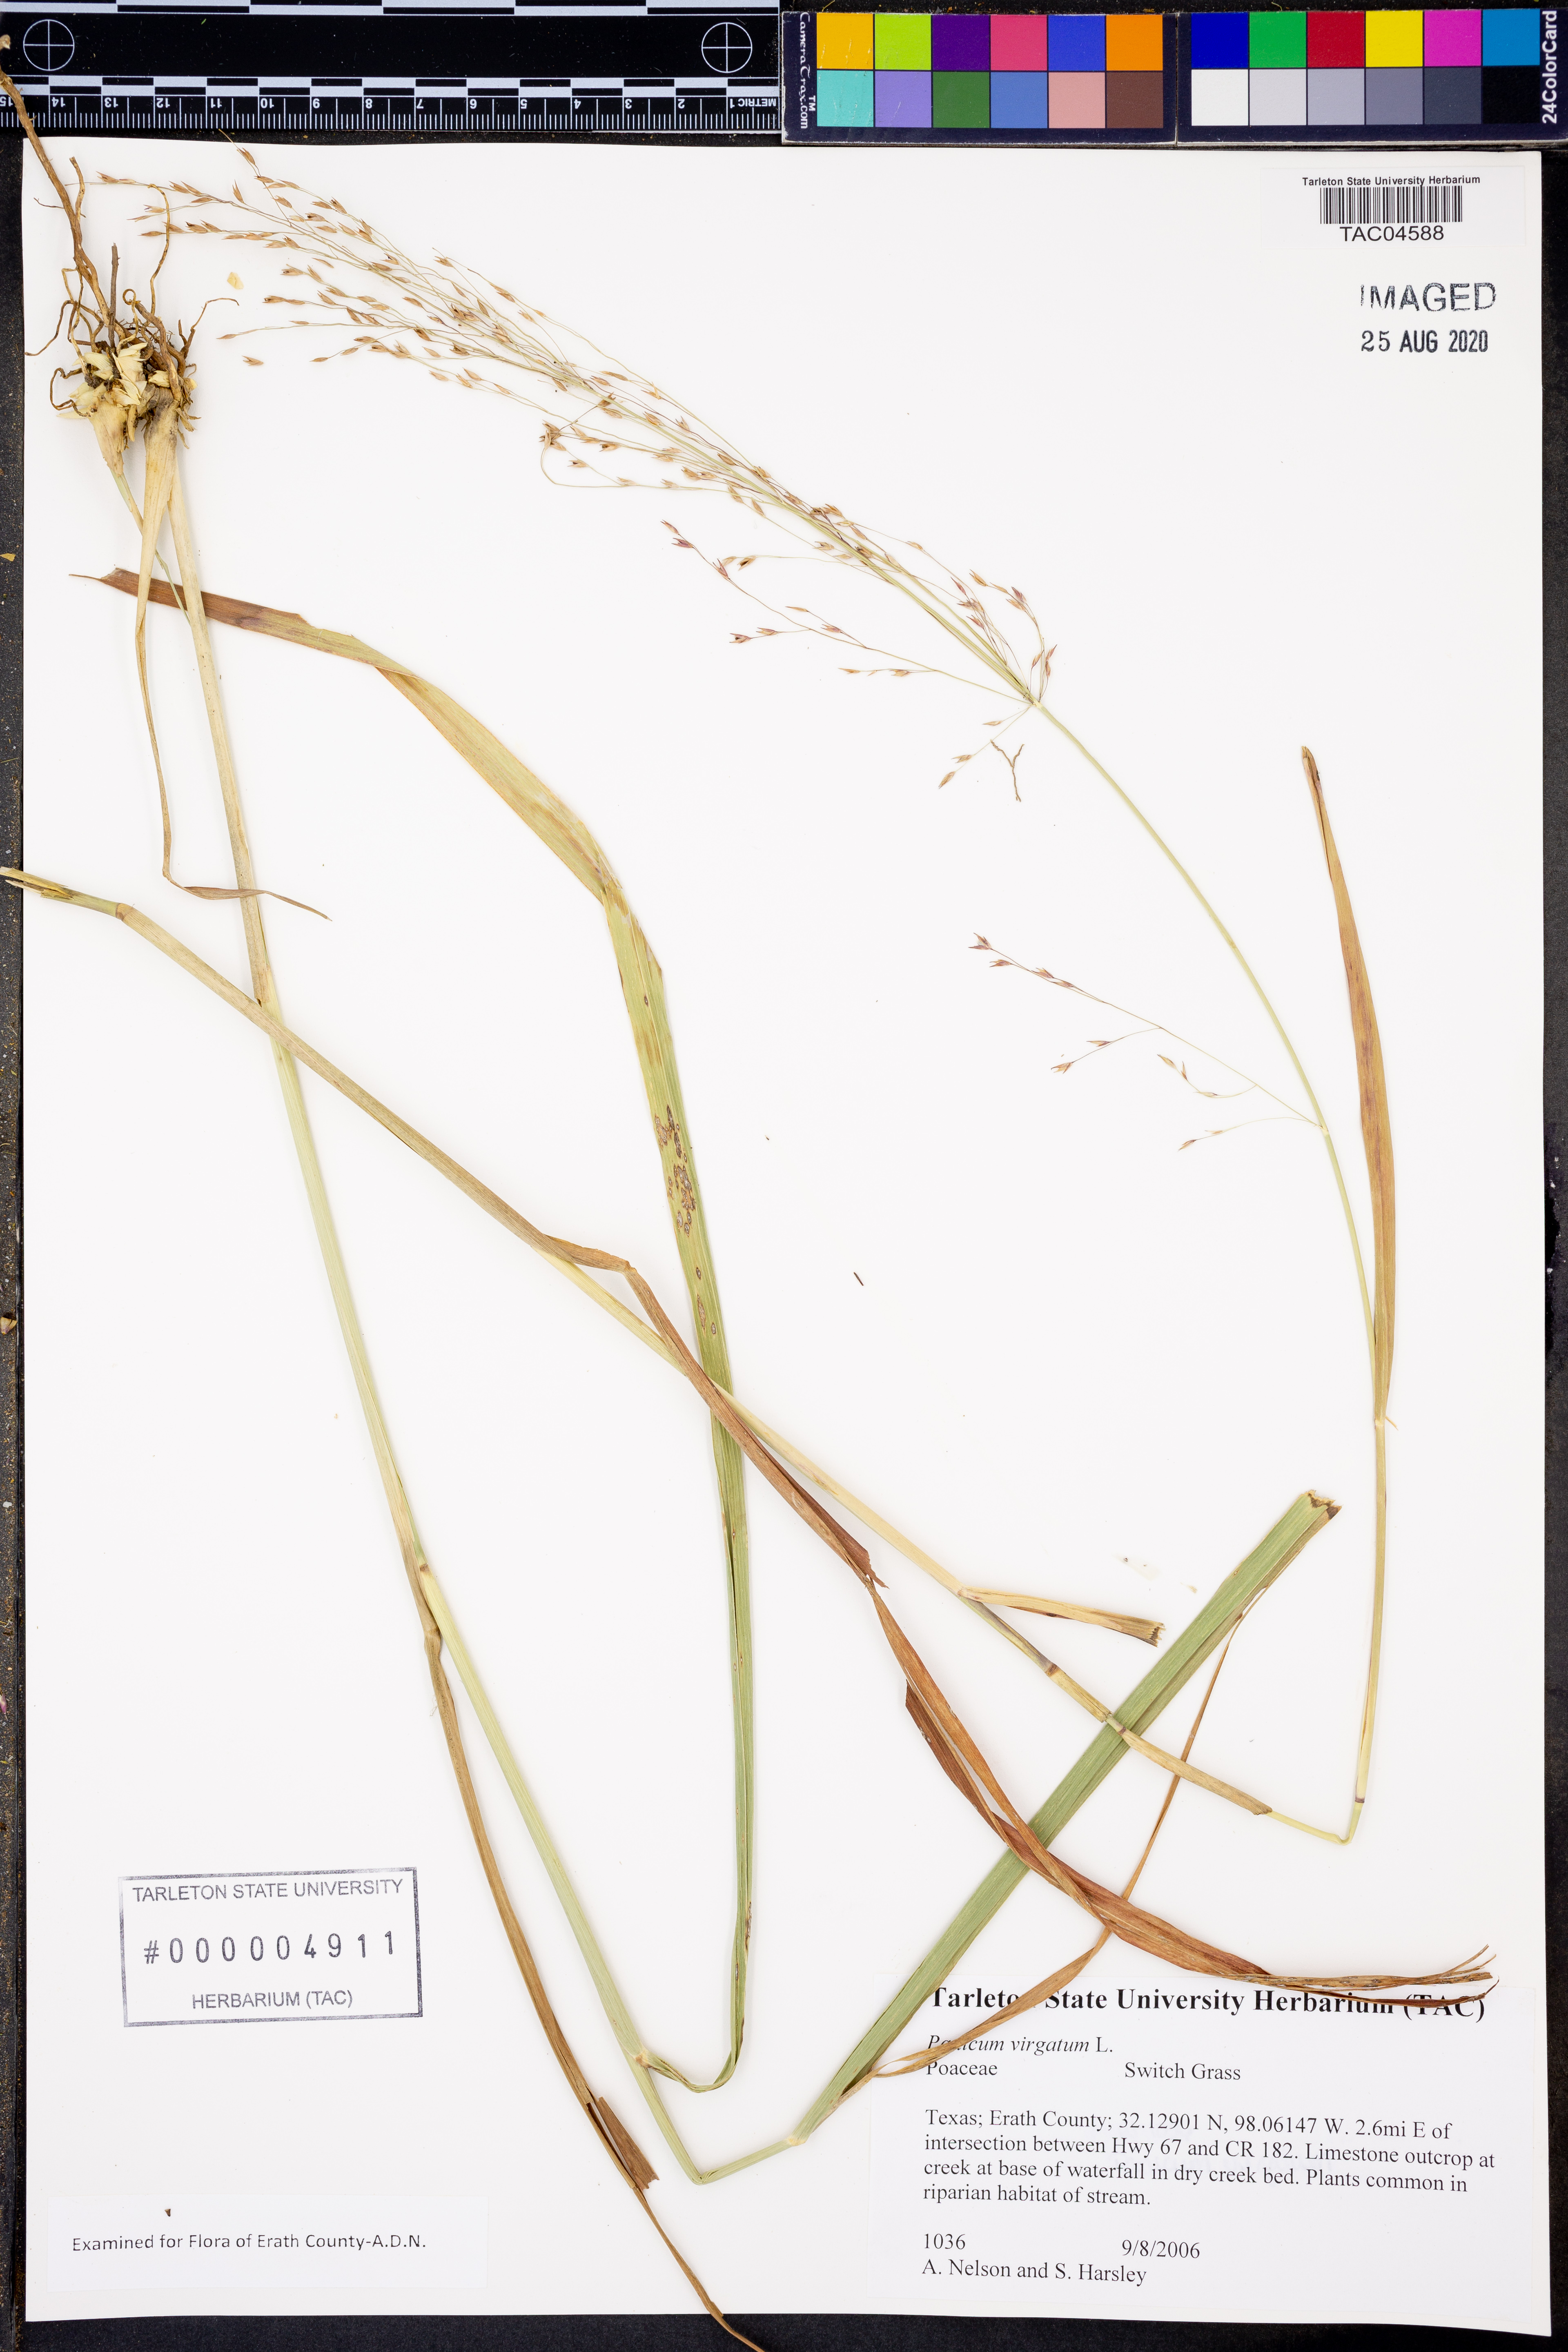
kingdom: Plantae
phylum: Tracheophyta
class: Liliopsida
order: Poales
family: Poaceae
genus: Panicum
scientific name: Panicum virgatum
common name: Switchgrass
